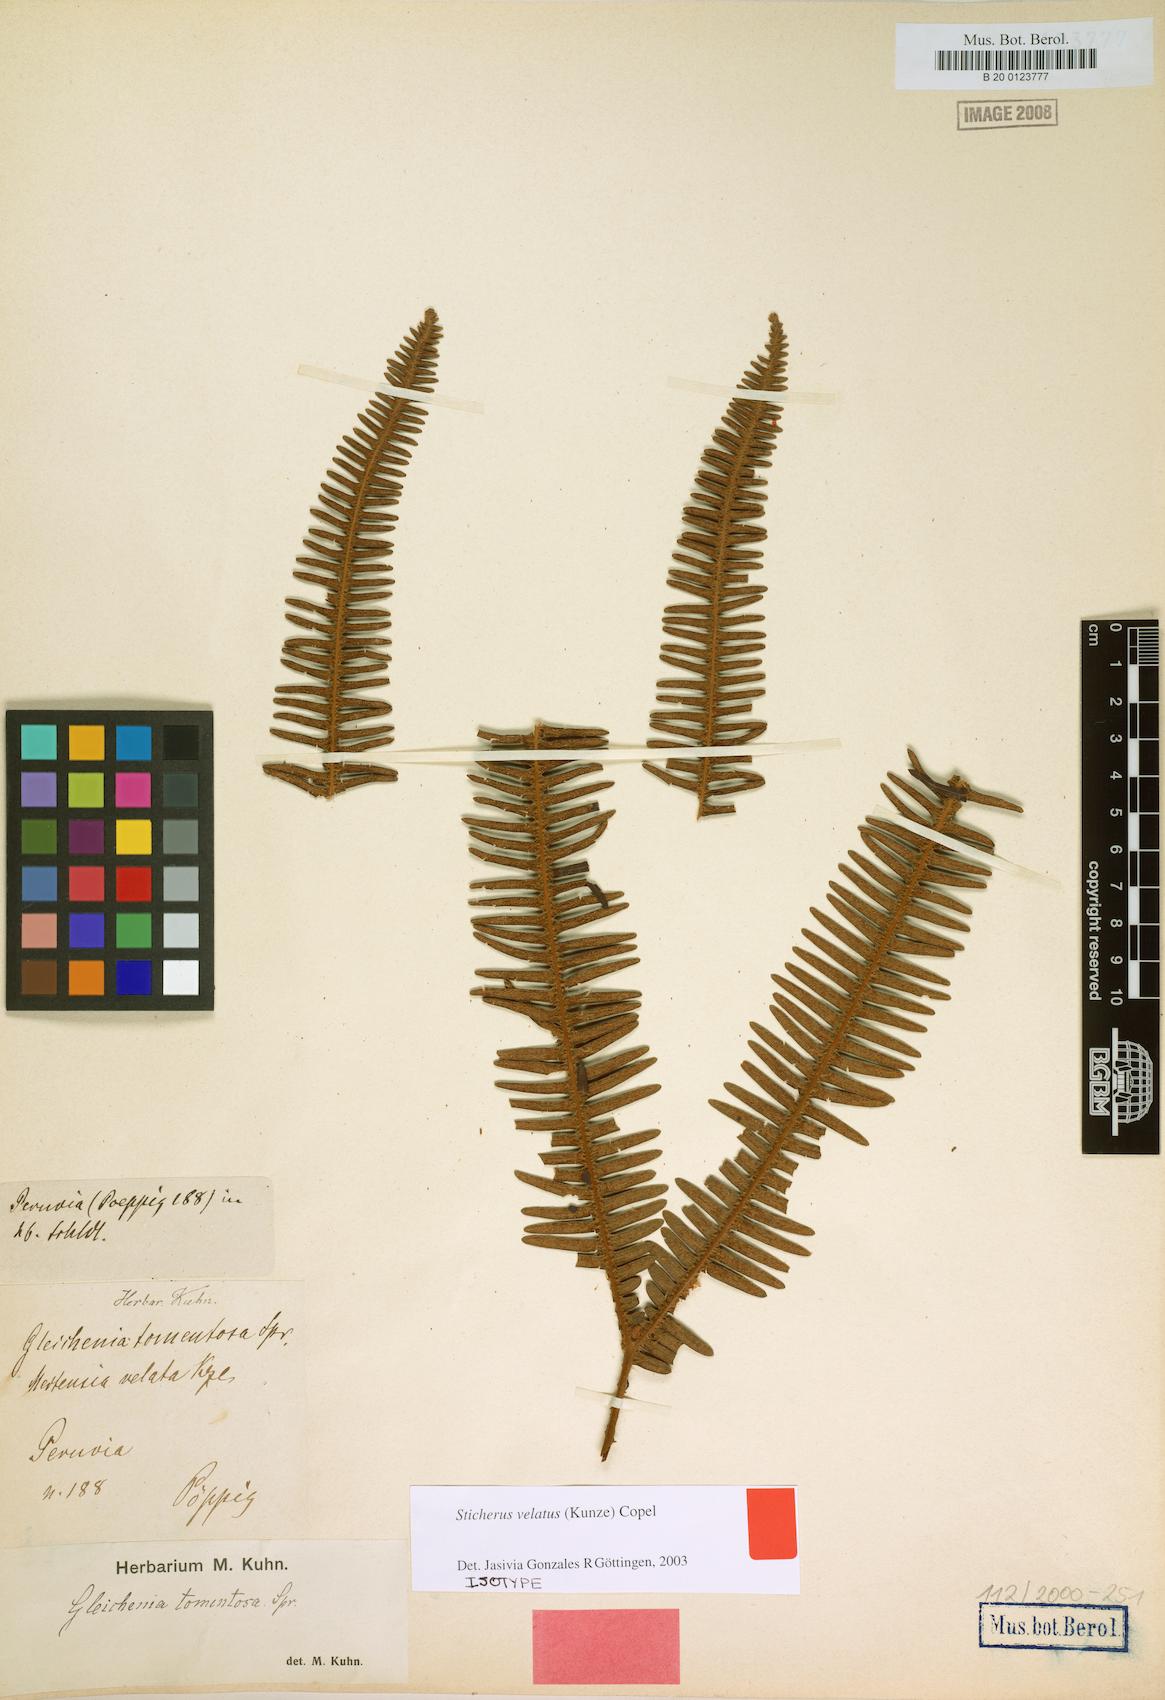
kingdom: Plantae
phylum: Tracheophyta
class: Polypodiopsida
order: Gleicheniales
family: Gleicheniaceae
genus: Sticherus
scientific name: Sticherus velatus
